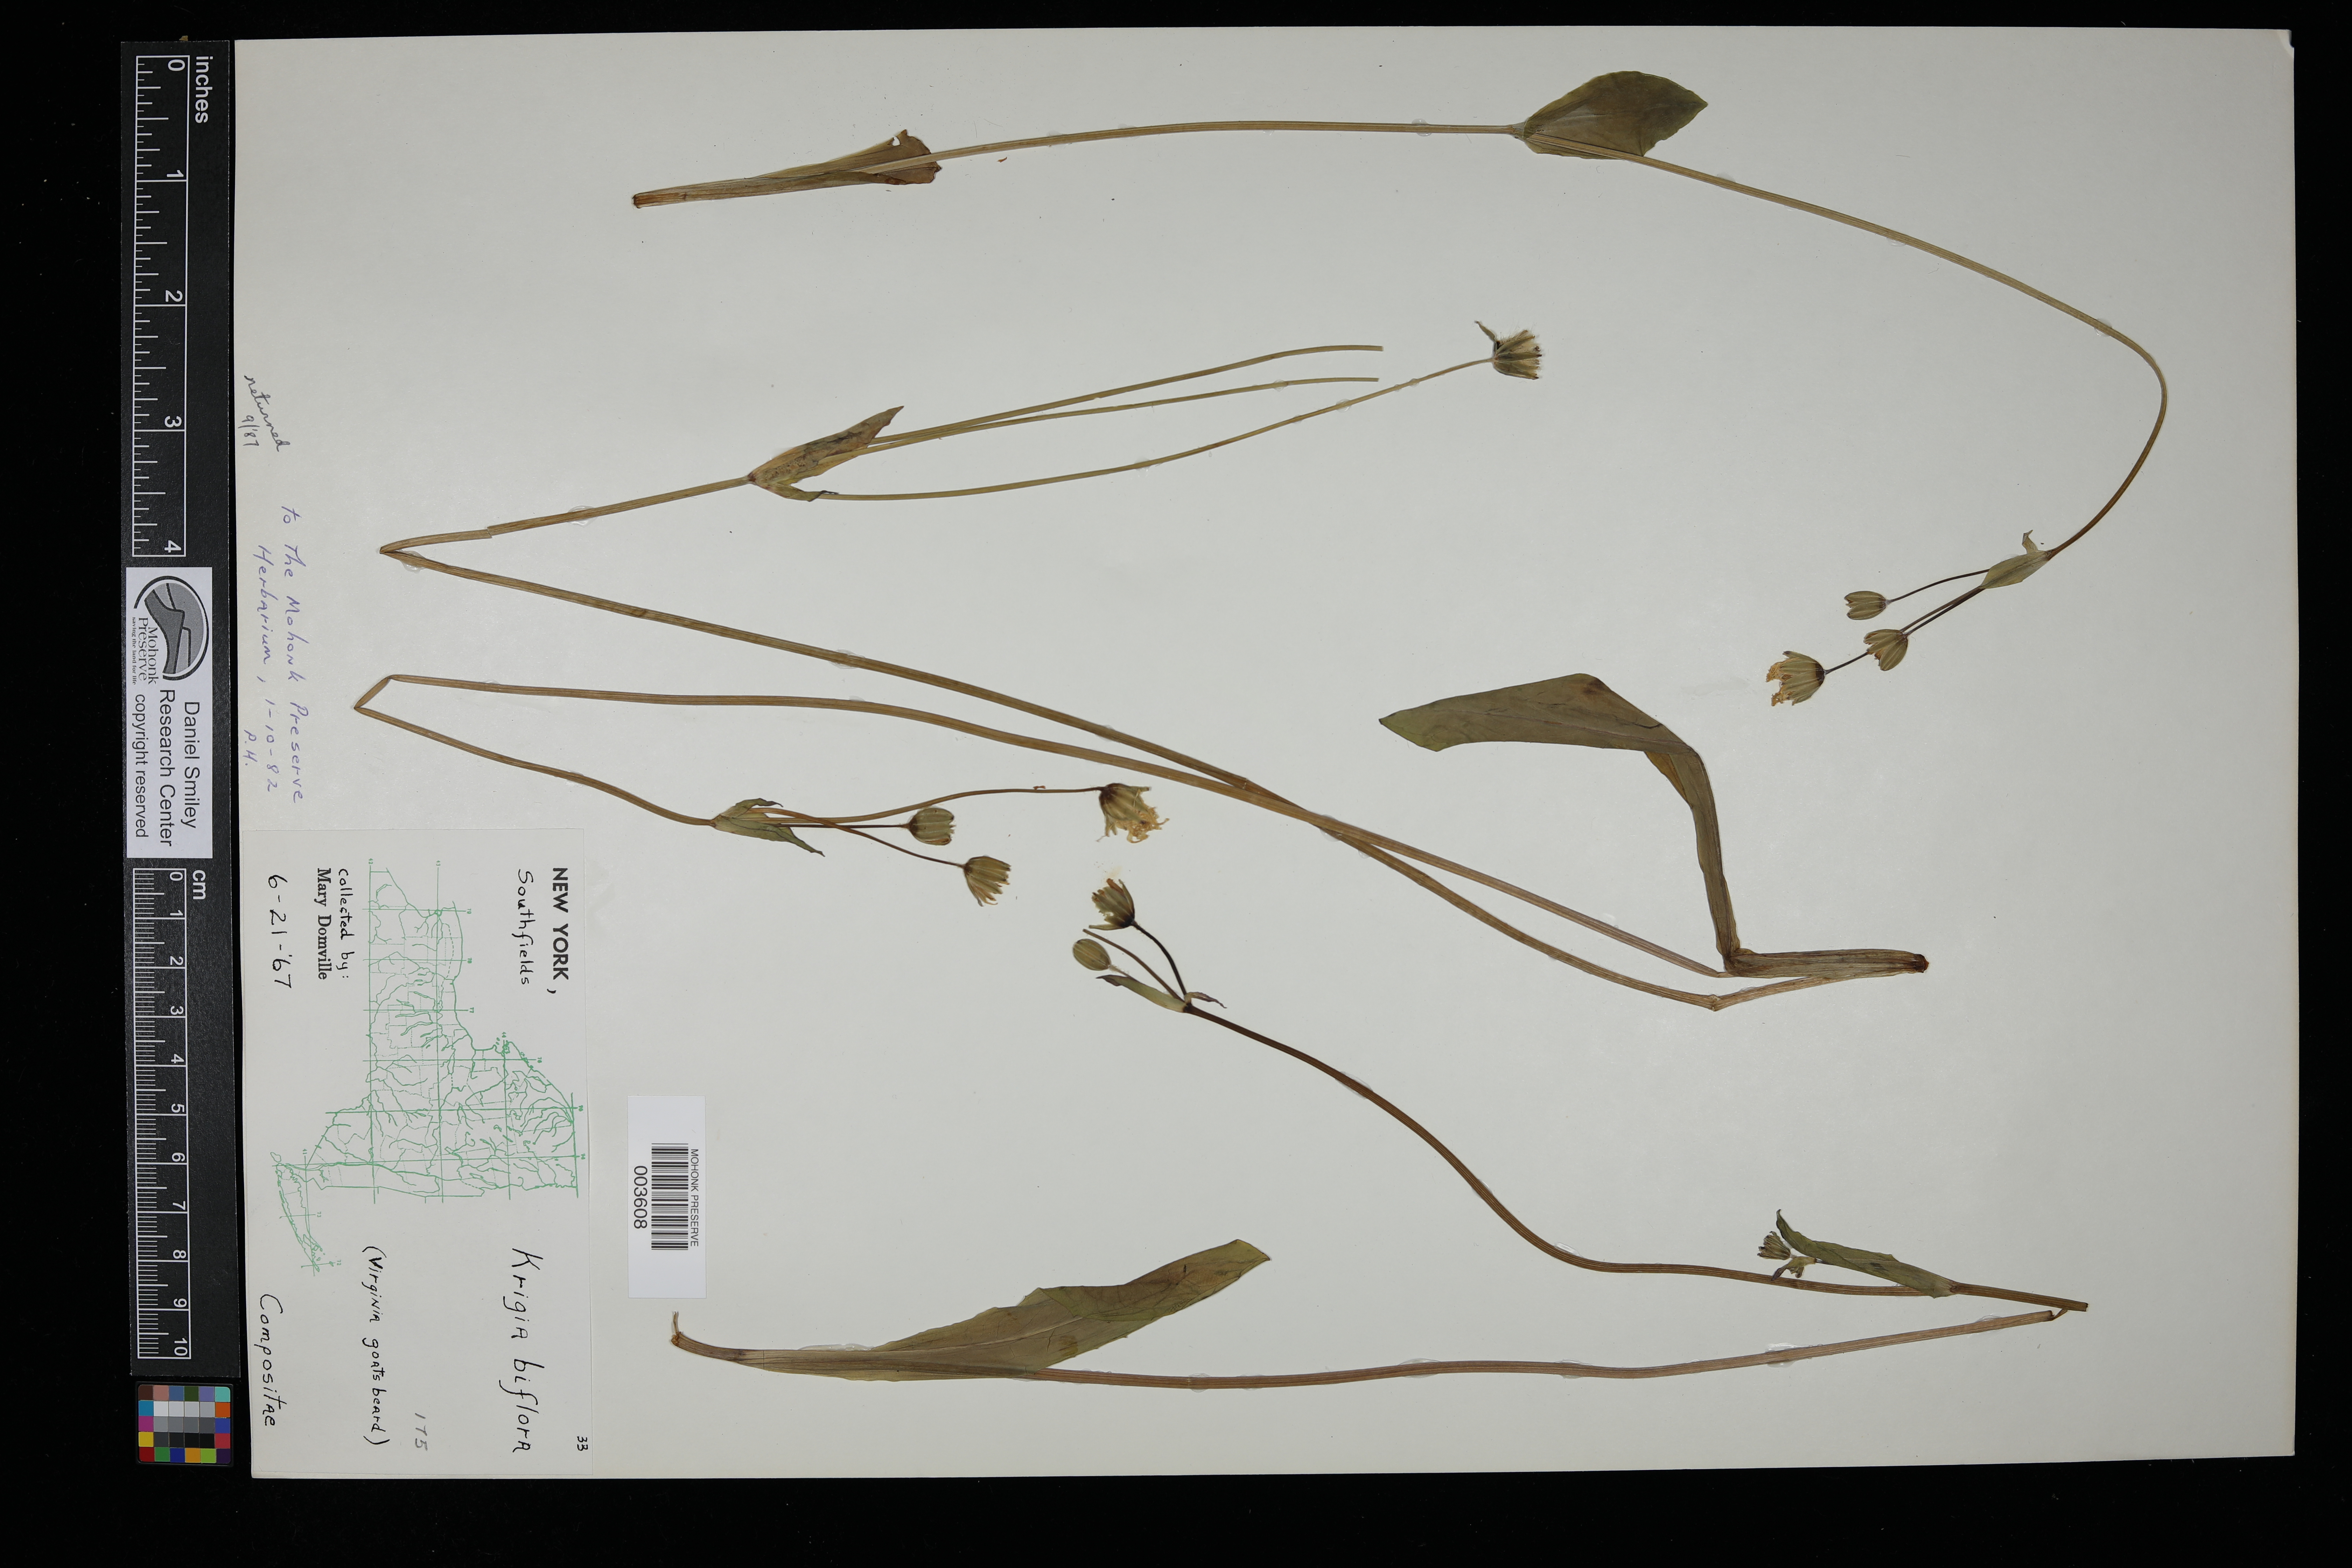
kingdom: Plantae
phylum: Tracheophyta
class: Magnoliopsida
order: Asterales
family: Asteraceae
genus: Krigia
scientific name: Krigia biflora
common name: Orange dwarf-dandelion
